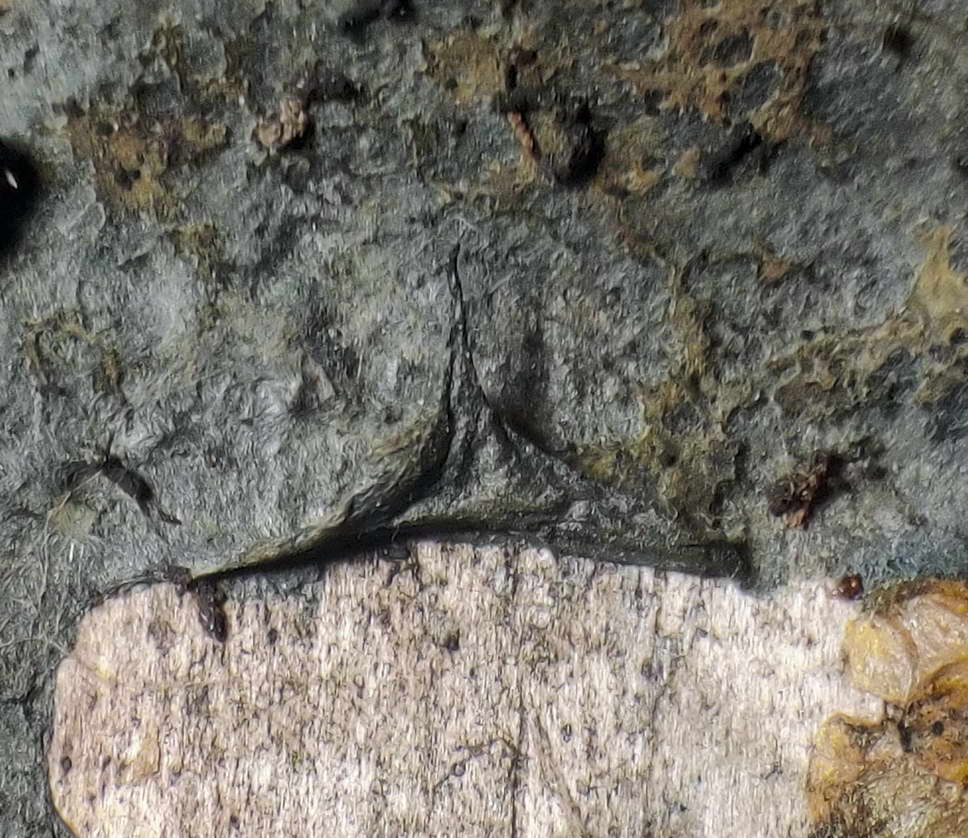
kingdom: Fungi
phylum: Basidiomycota
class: Agaricomycetes
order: Atheliales
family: Atheliaceae
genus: Byssocorticium
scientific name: Byssocorticium atrovirens
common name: blå førnehinde
